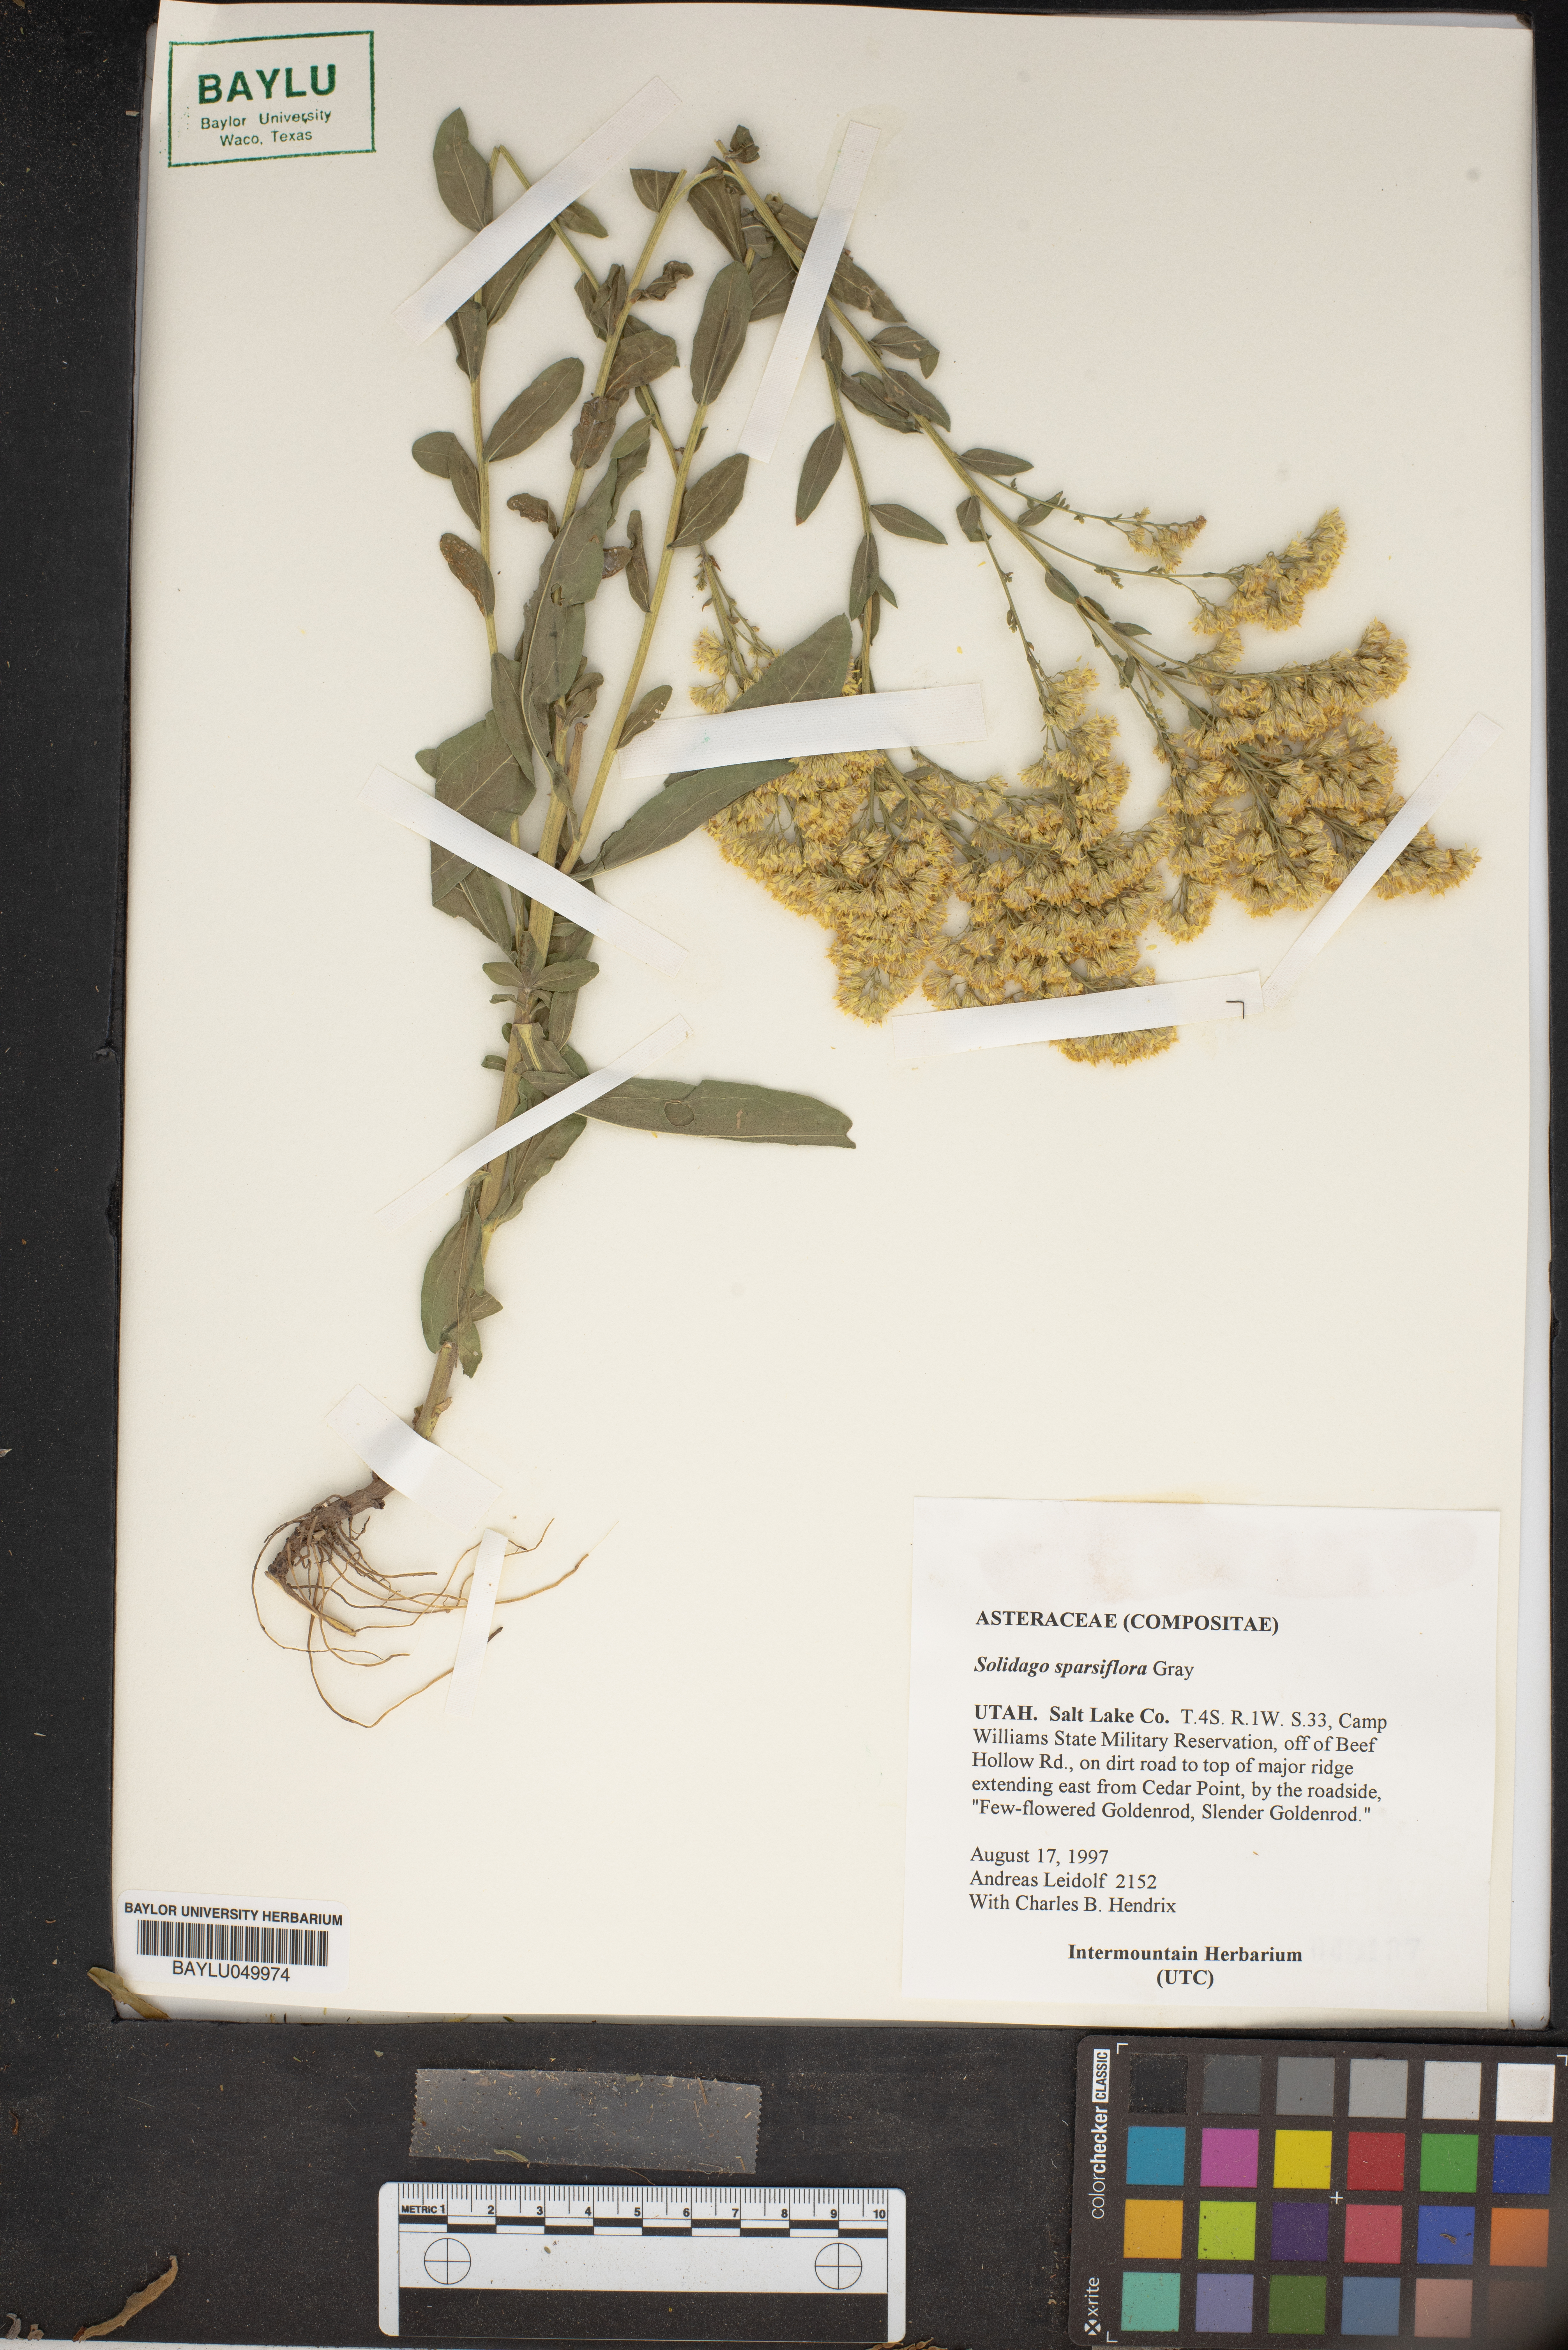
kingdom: Plantae
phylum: Tracheophyta
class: Magnoliopsida
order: Asterales
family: Asteraceae
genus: Solidago
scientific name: Solidago garrettii
